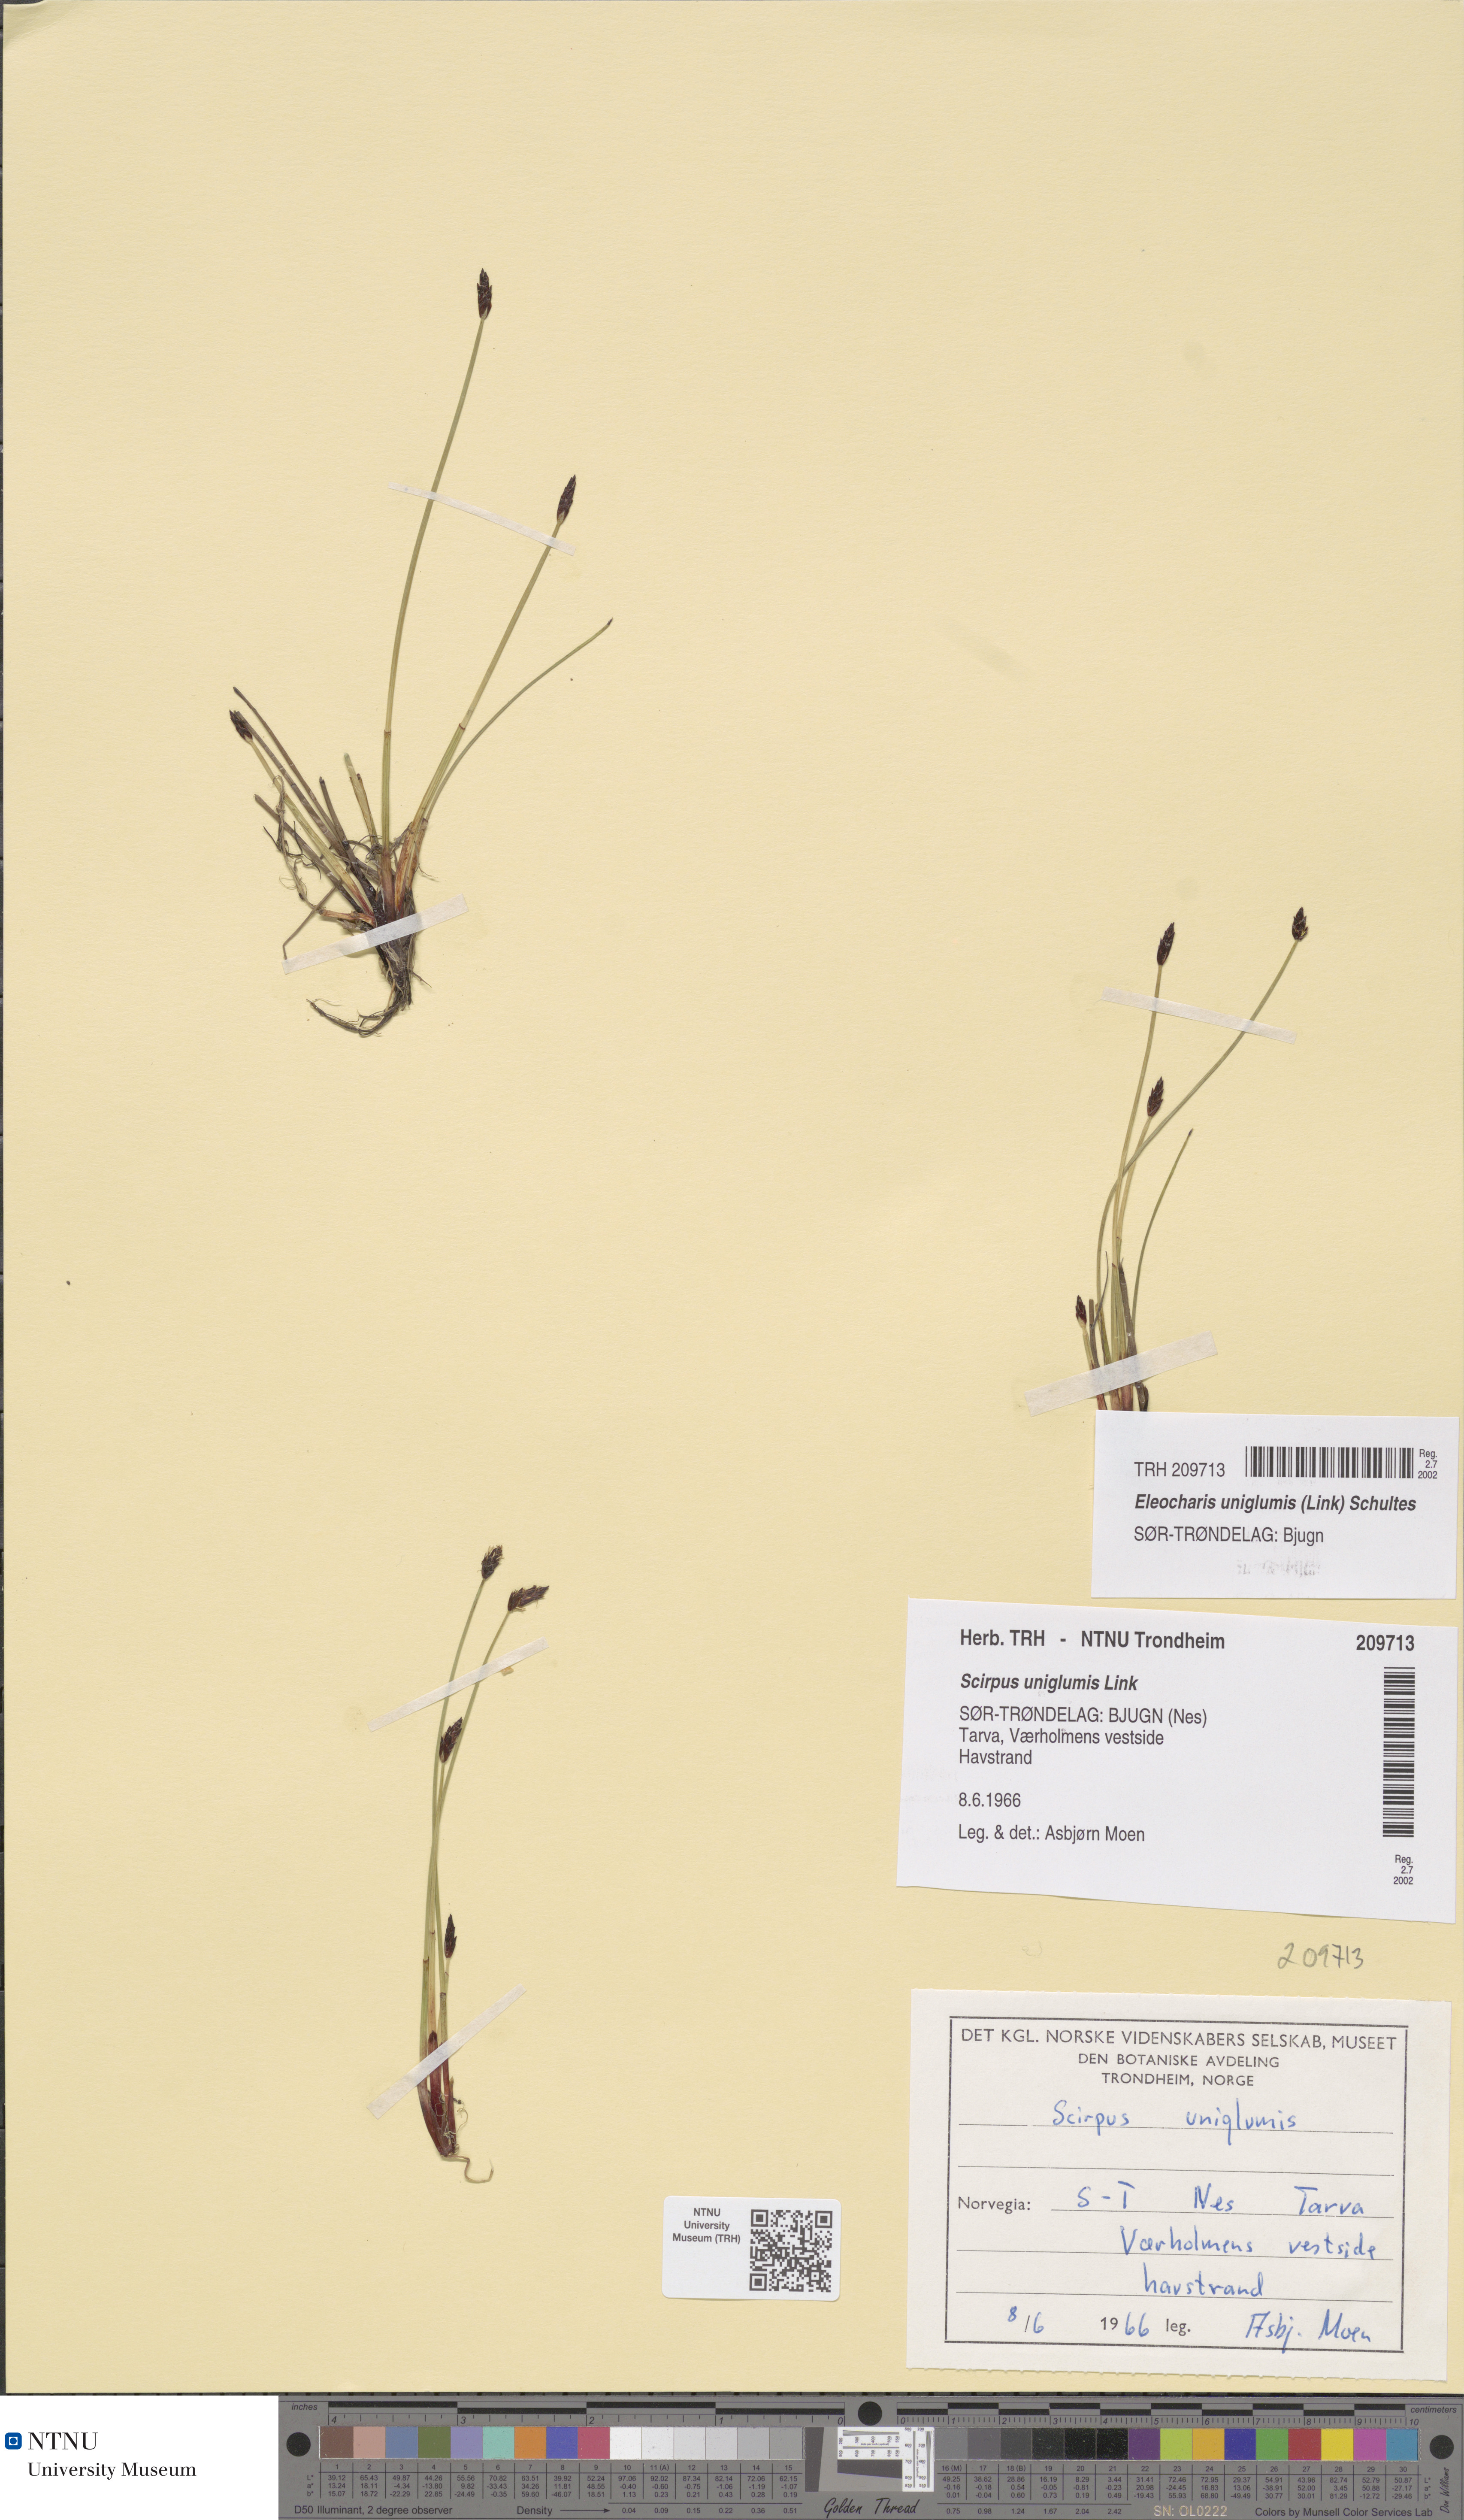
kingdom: Plantae
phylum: Tracheophyta
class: Liliopsida
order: Poales
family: Cyperaceae
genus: Eleocharis
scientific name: Eleocharis uniglumis
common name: Slender spike-rush
